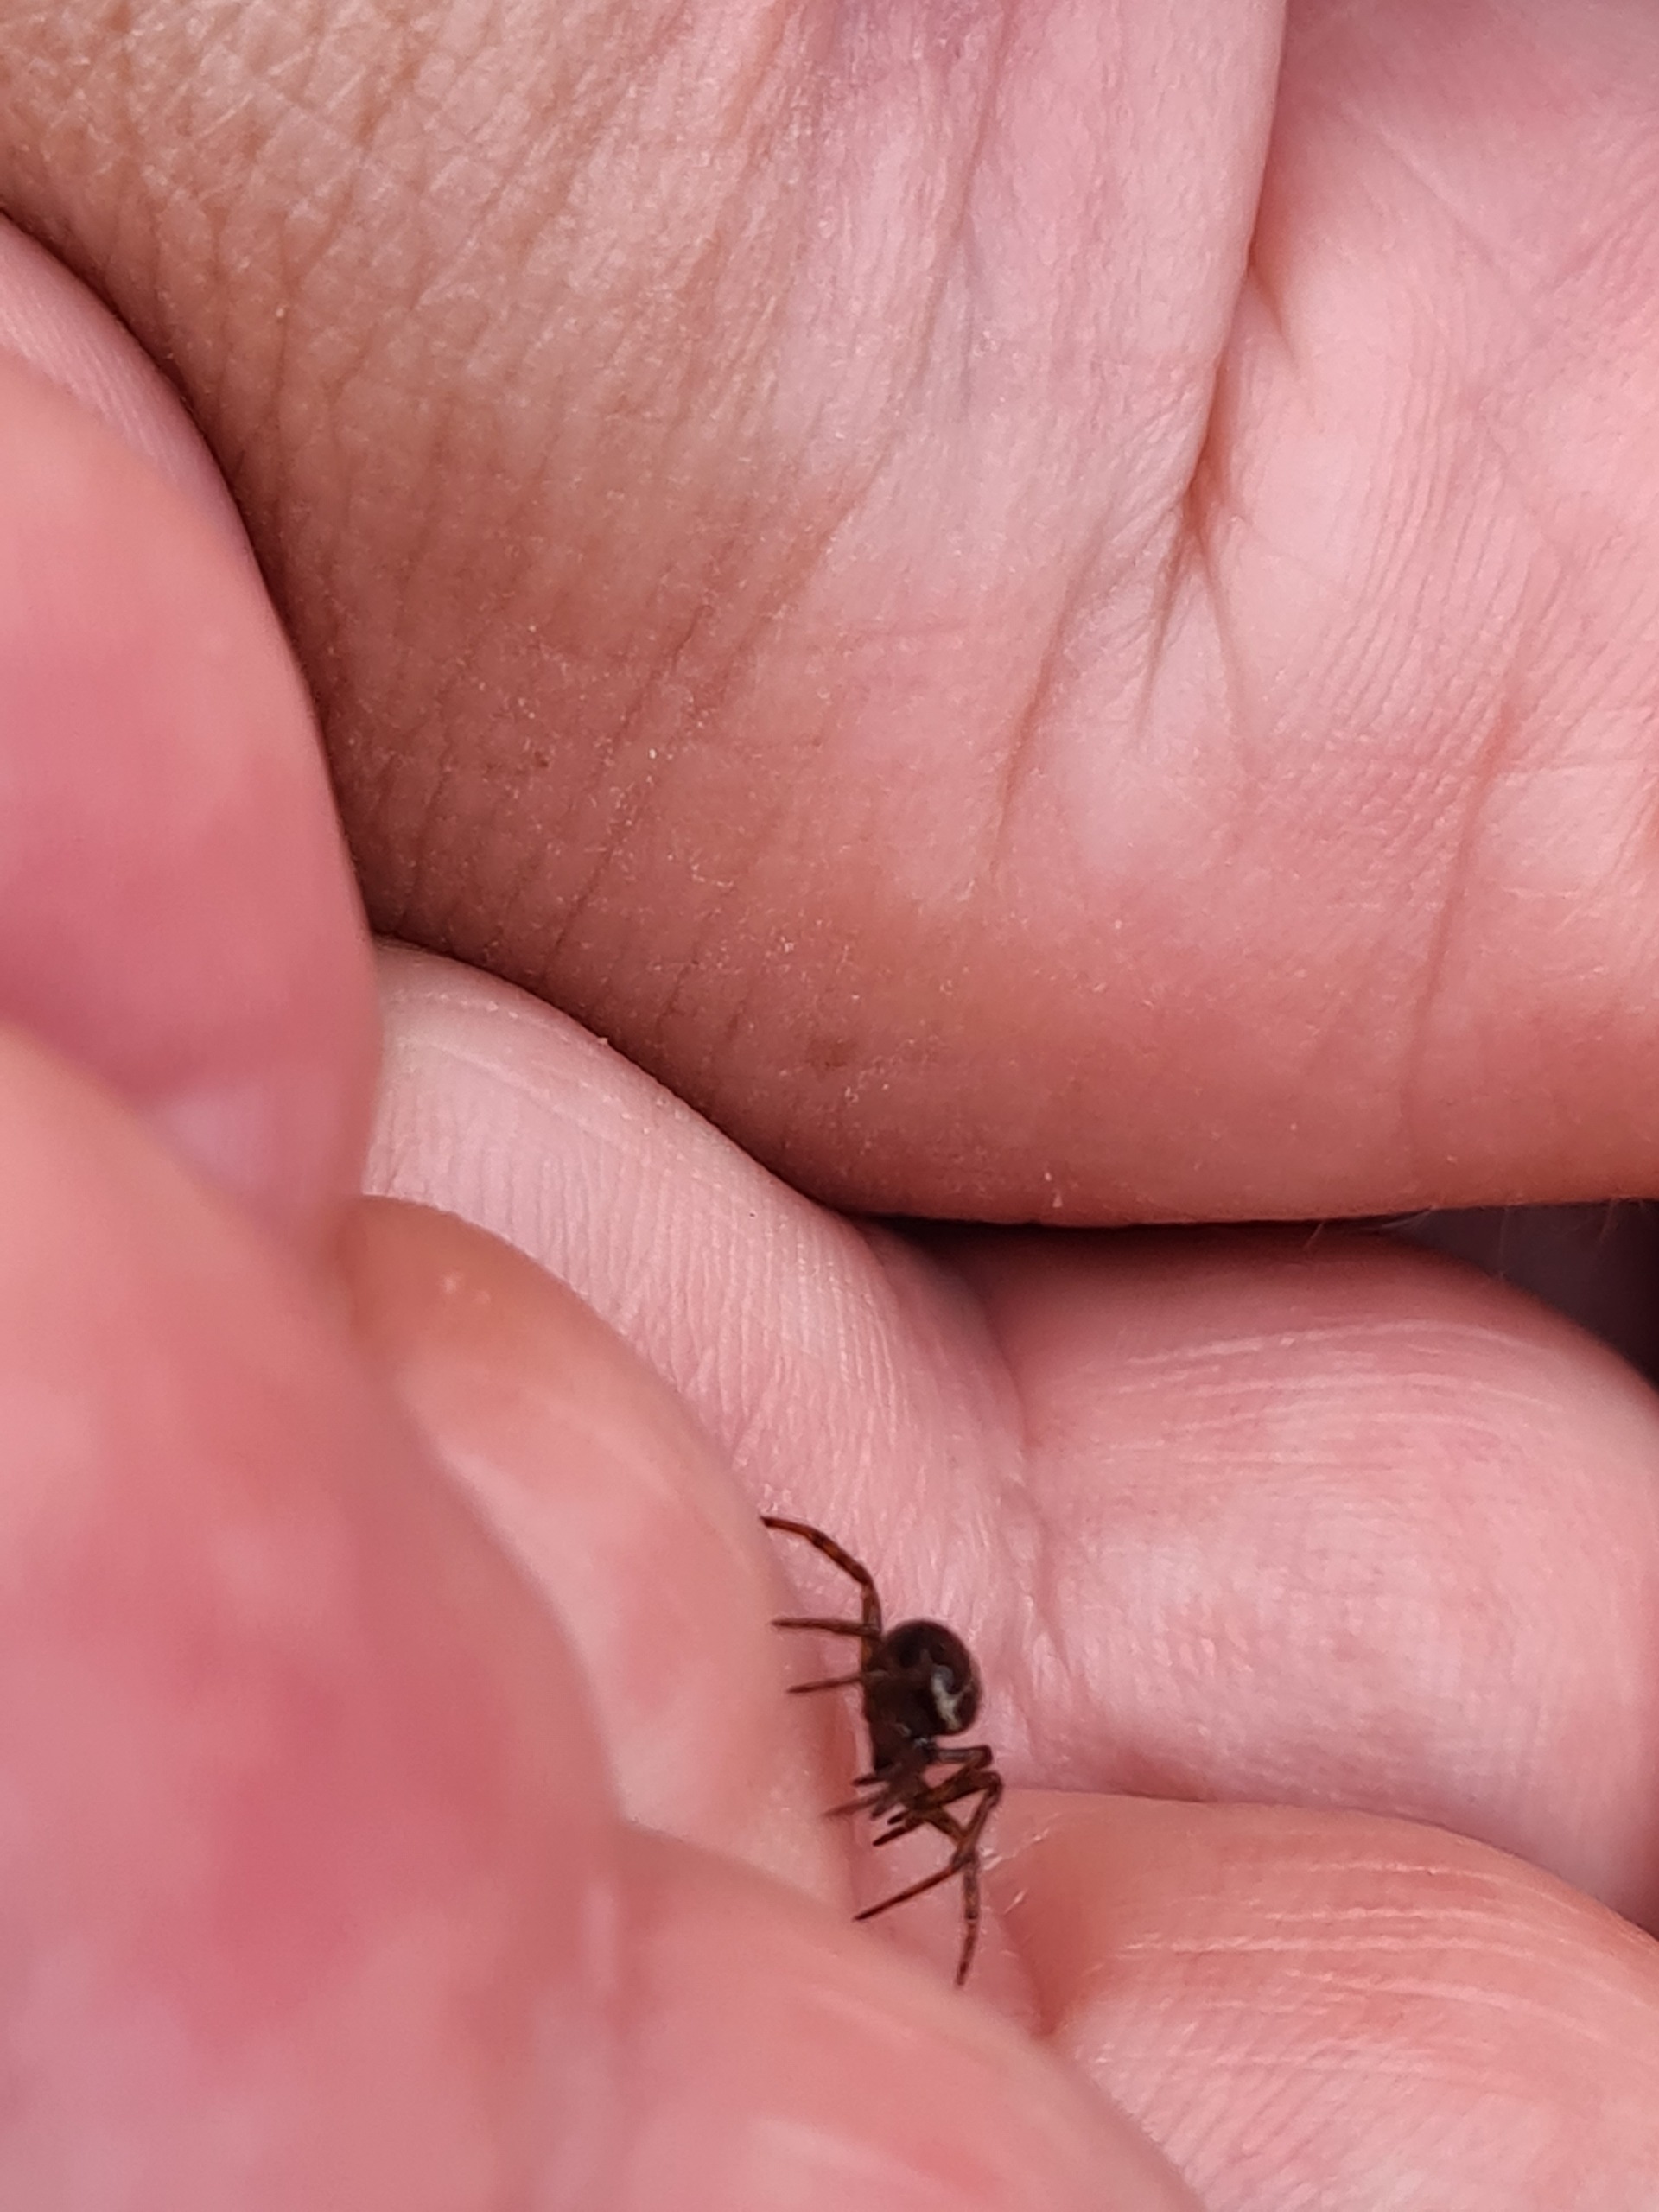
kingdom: Animalia
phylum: Arthropoda
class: Arachnida
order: Araneae
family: Theridiidae
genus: Steatoda
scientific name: Steatoda bipunctata
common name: Fedtedderkop
